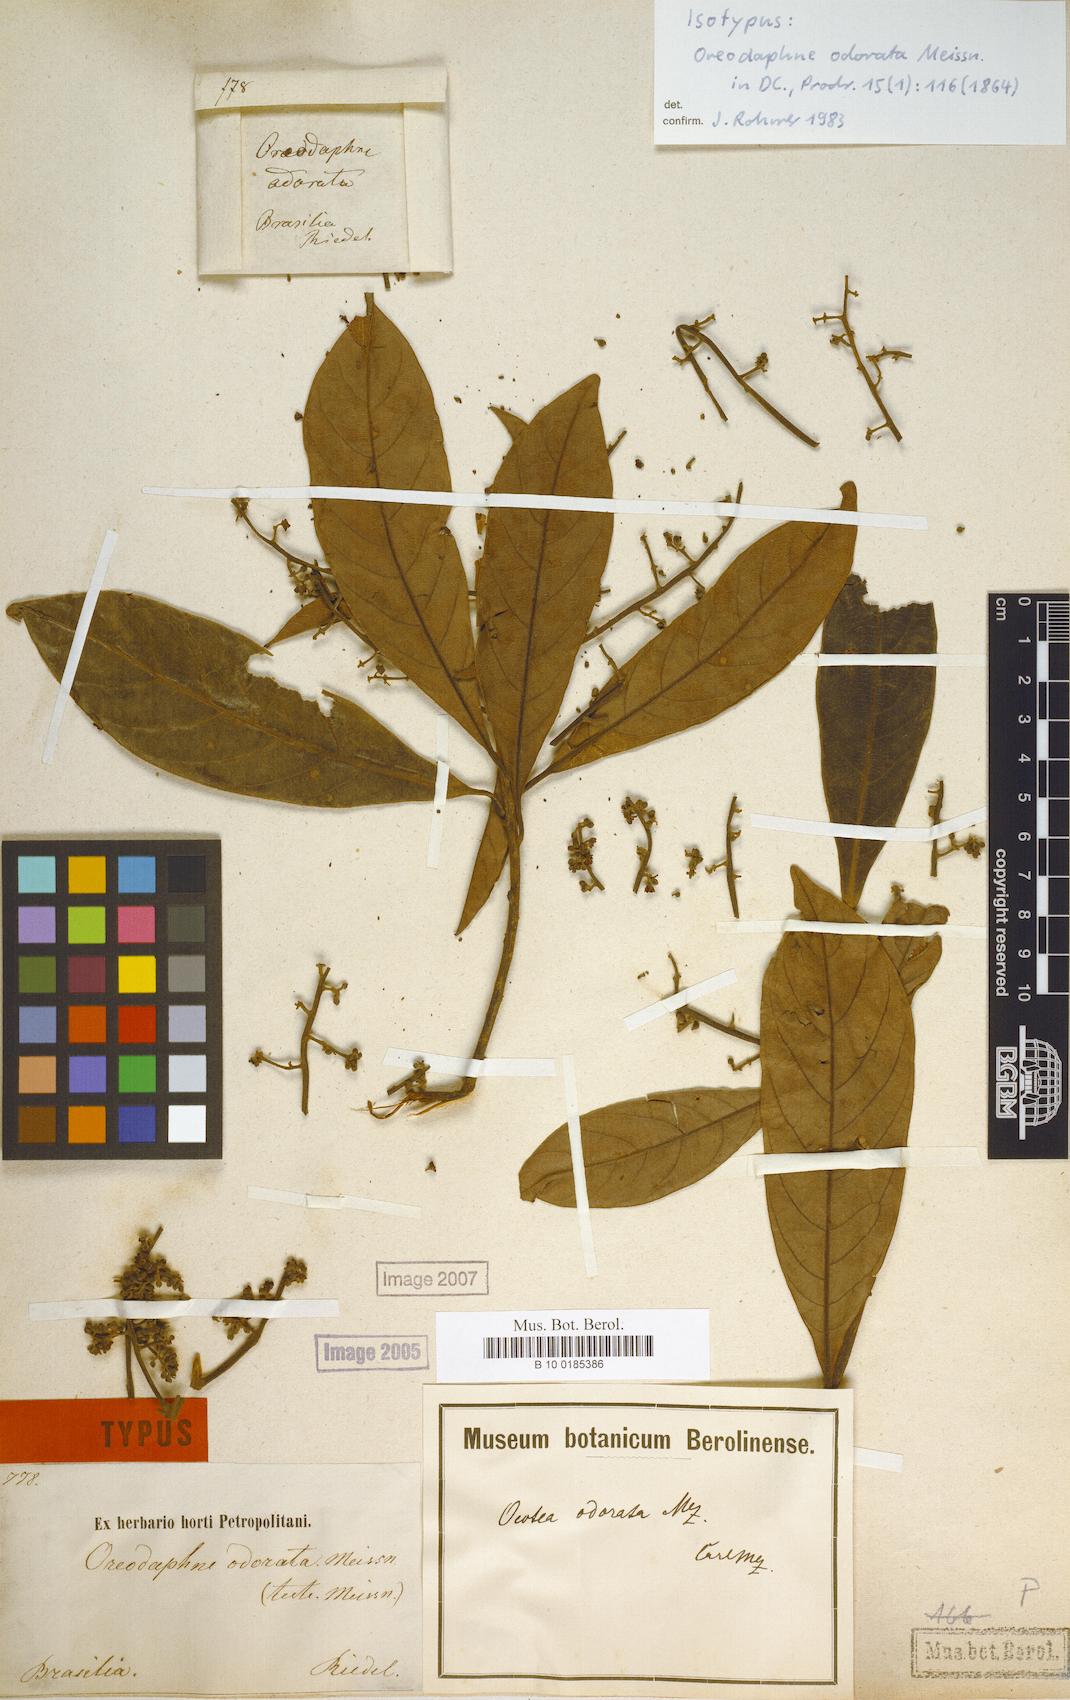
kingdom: Plantae
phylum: Tracheophyta
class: Magnoliopsida
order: Laurales
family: Lauraceae
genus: Ocotea
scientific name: Ocotea odorata
